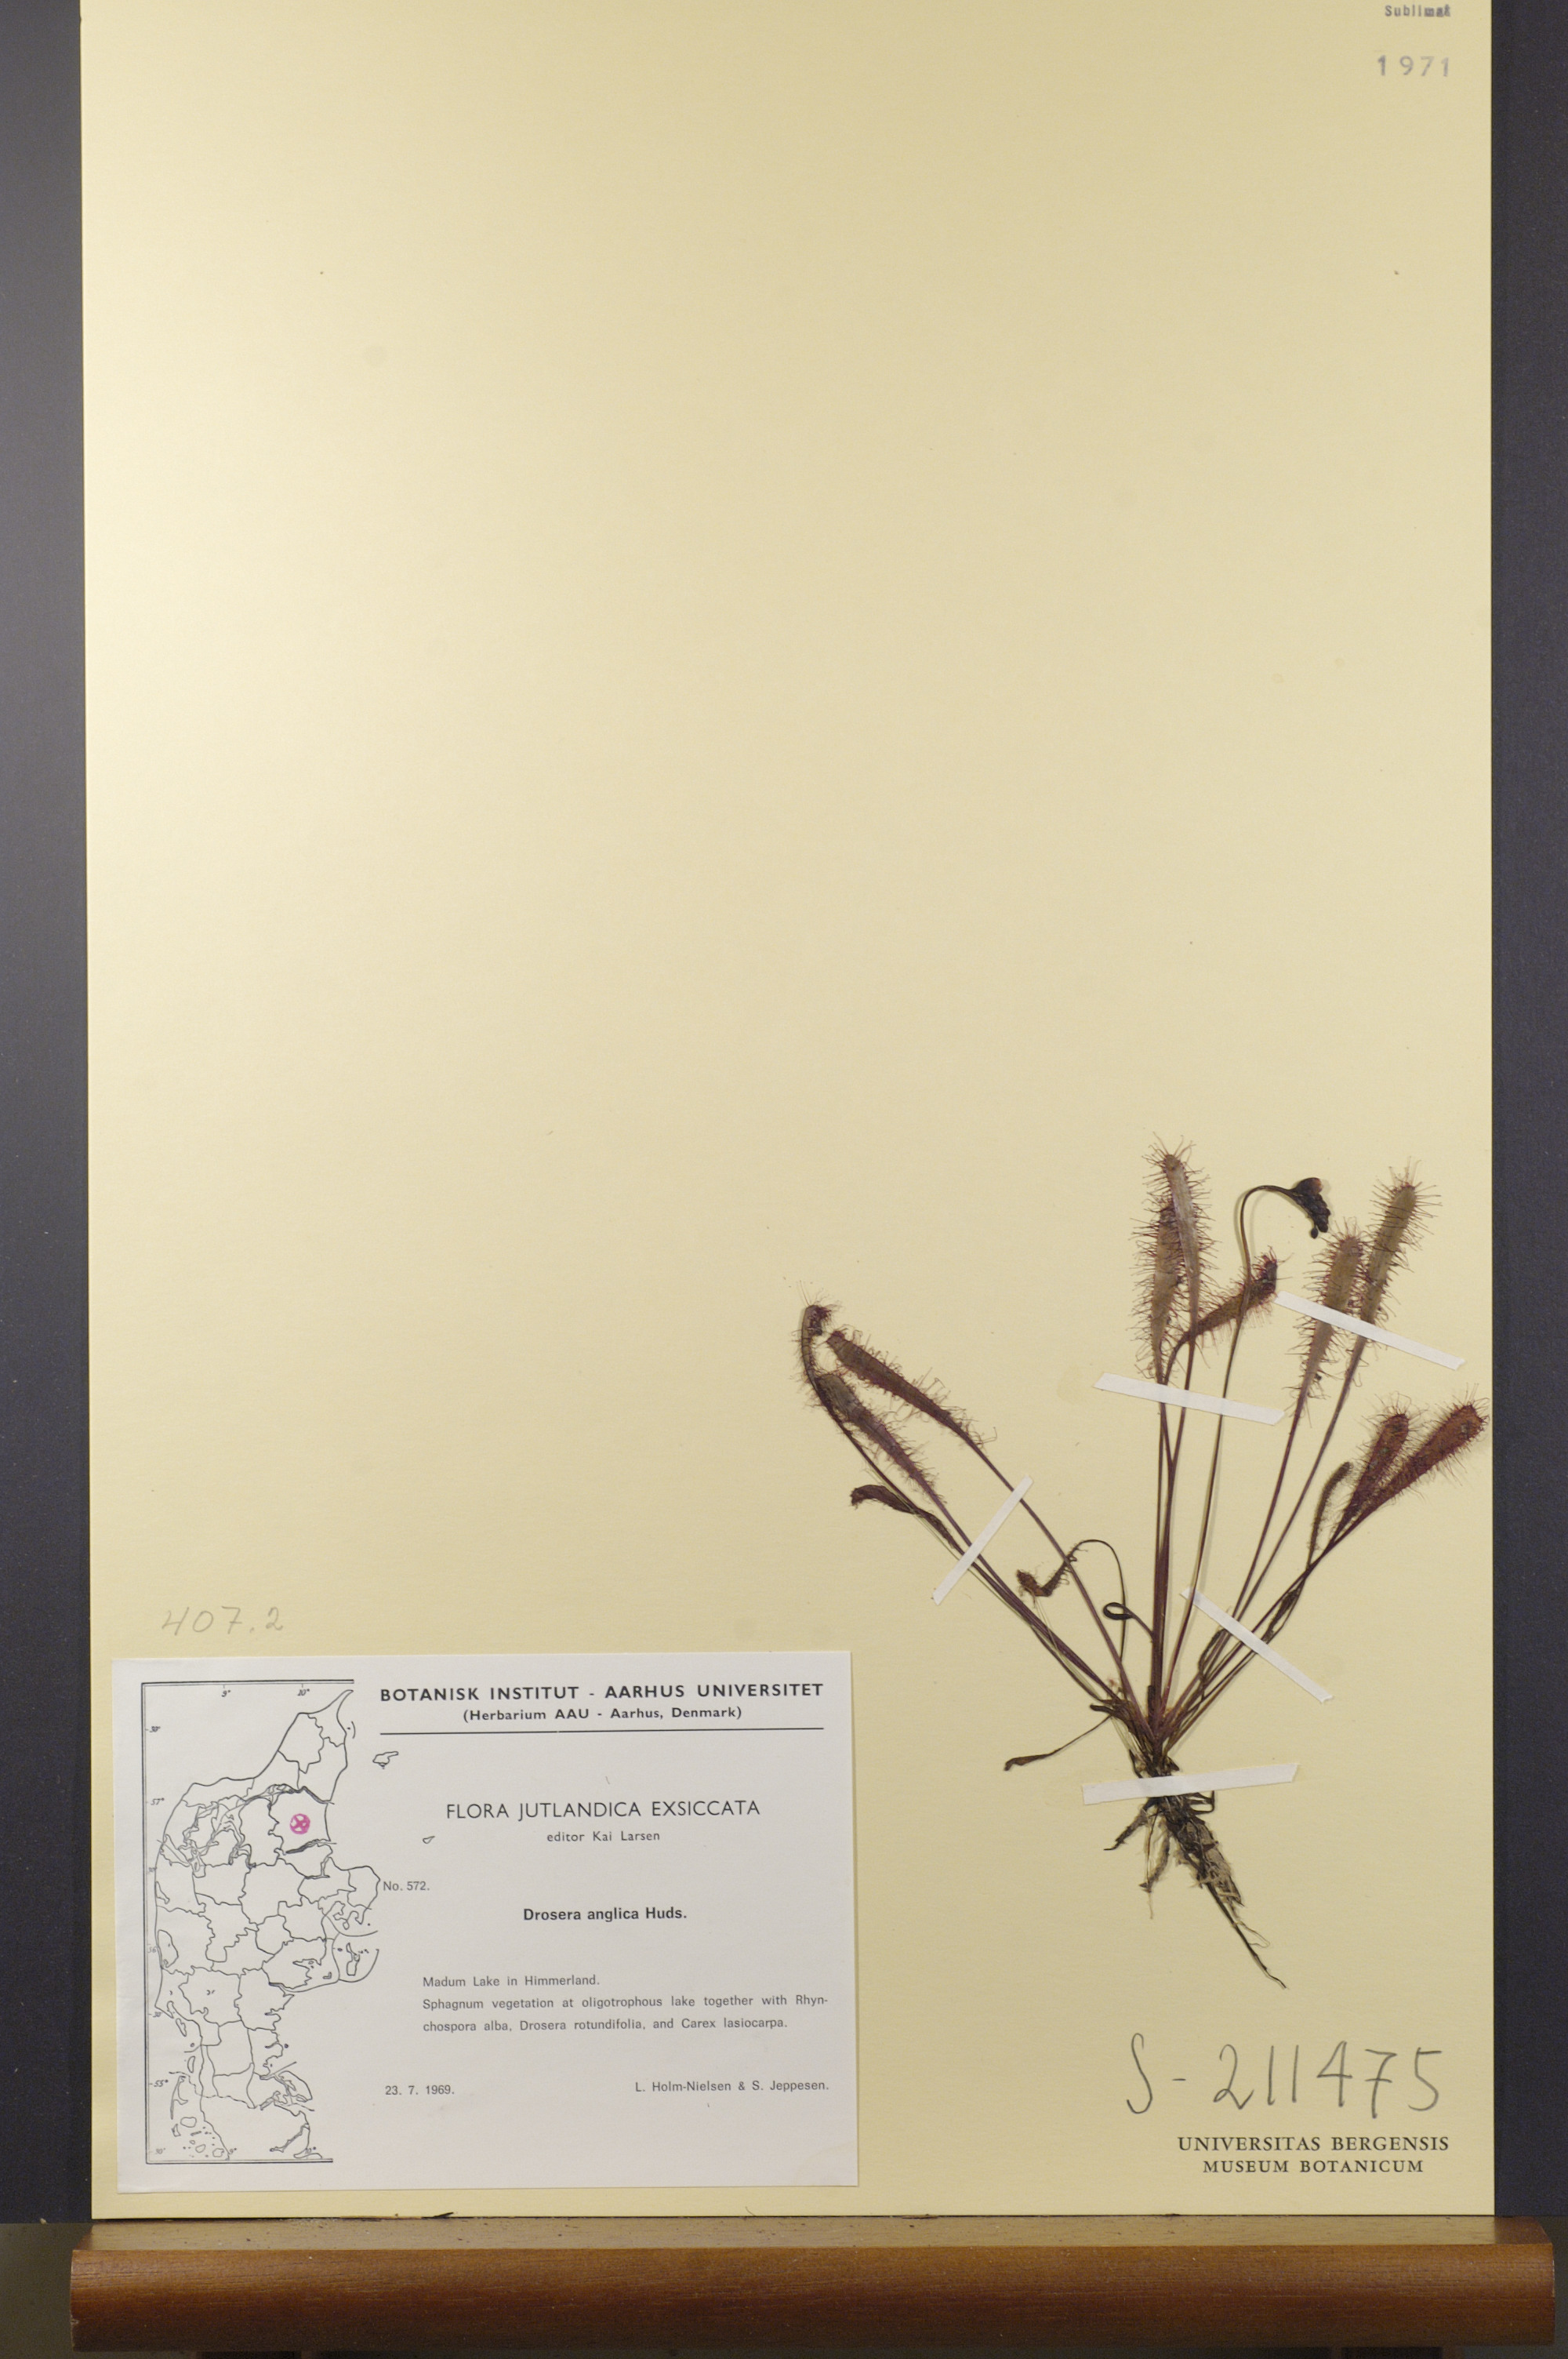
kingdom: Plantae
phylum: Tracheophyta
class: Magnoliopsida
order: Caryophyllales
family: Droseraceae
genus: Drosera
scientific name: Drosera anglica
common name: Great sundew
